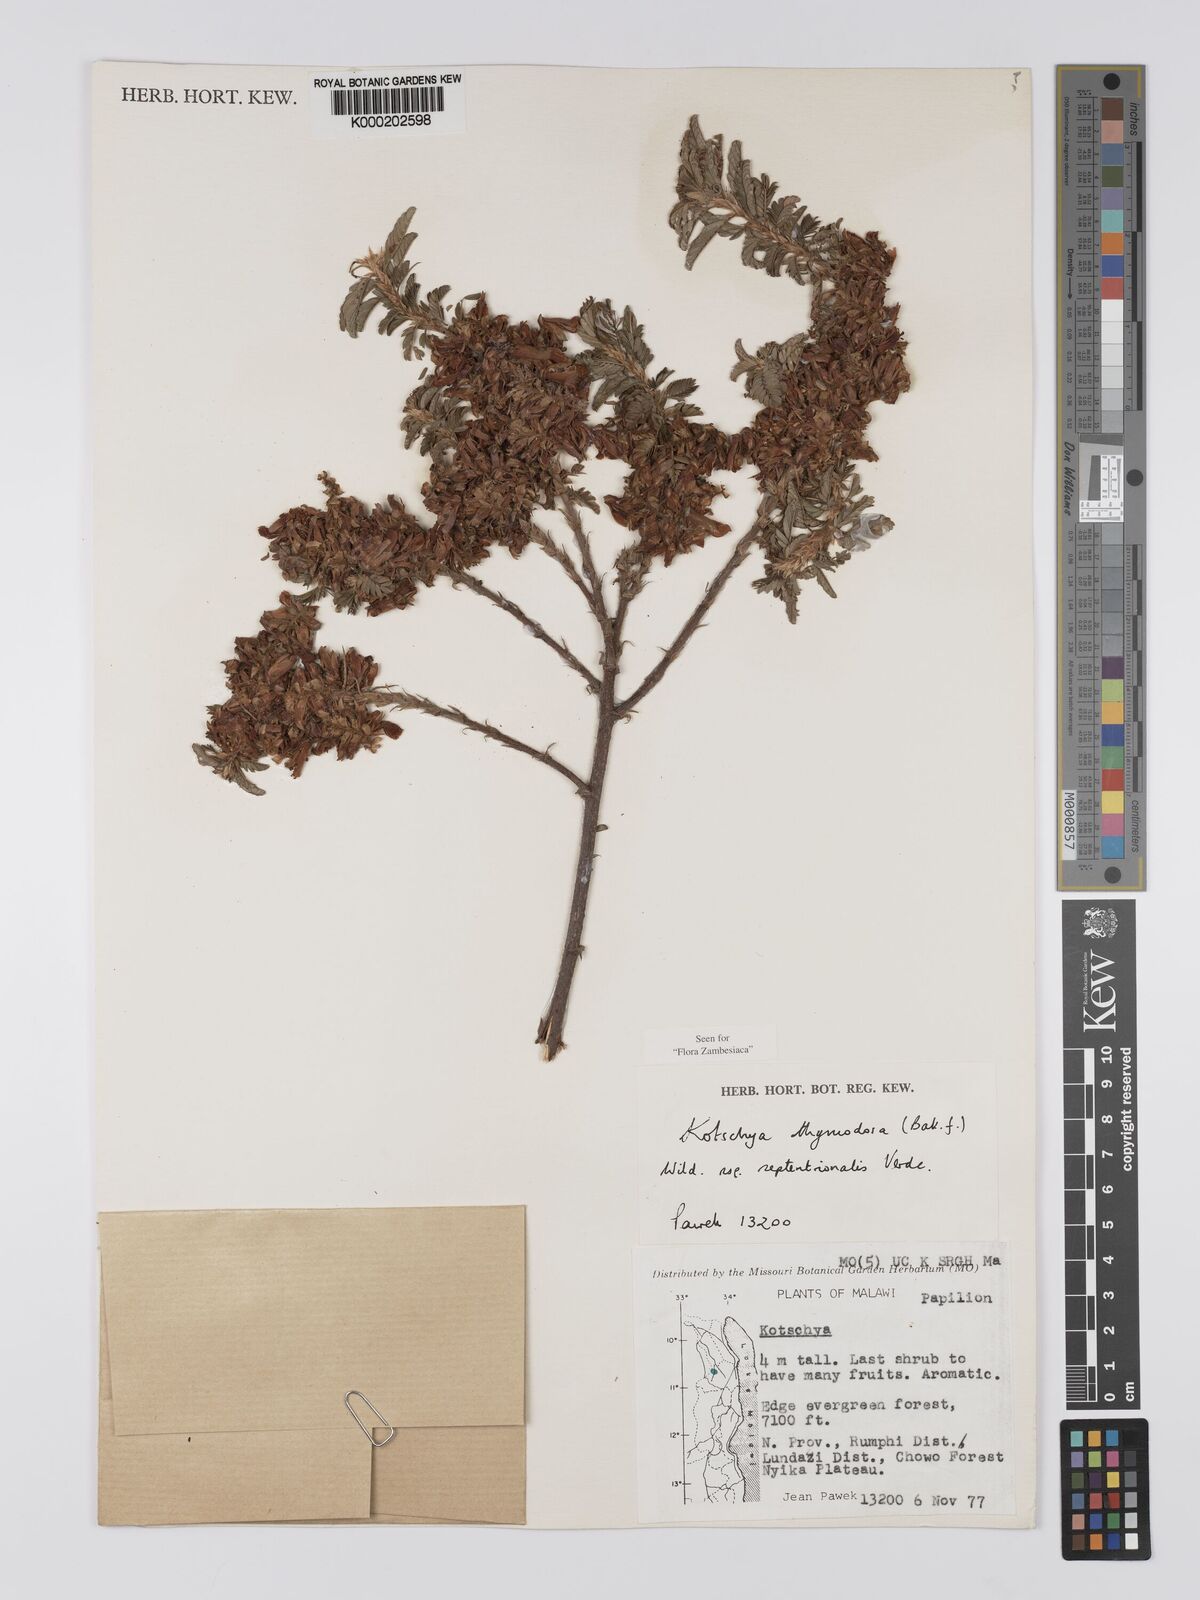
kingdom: Plantae
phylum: Tracheophyta
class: Magnoliopsida
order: Fabales
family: Fabaceae
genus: Kotschya
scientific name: Kotschya thymodora
